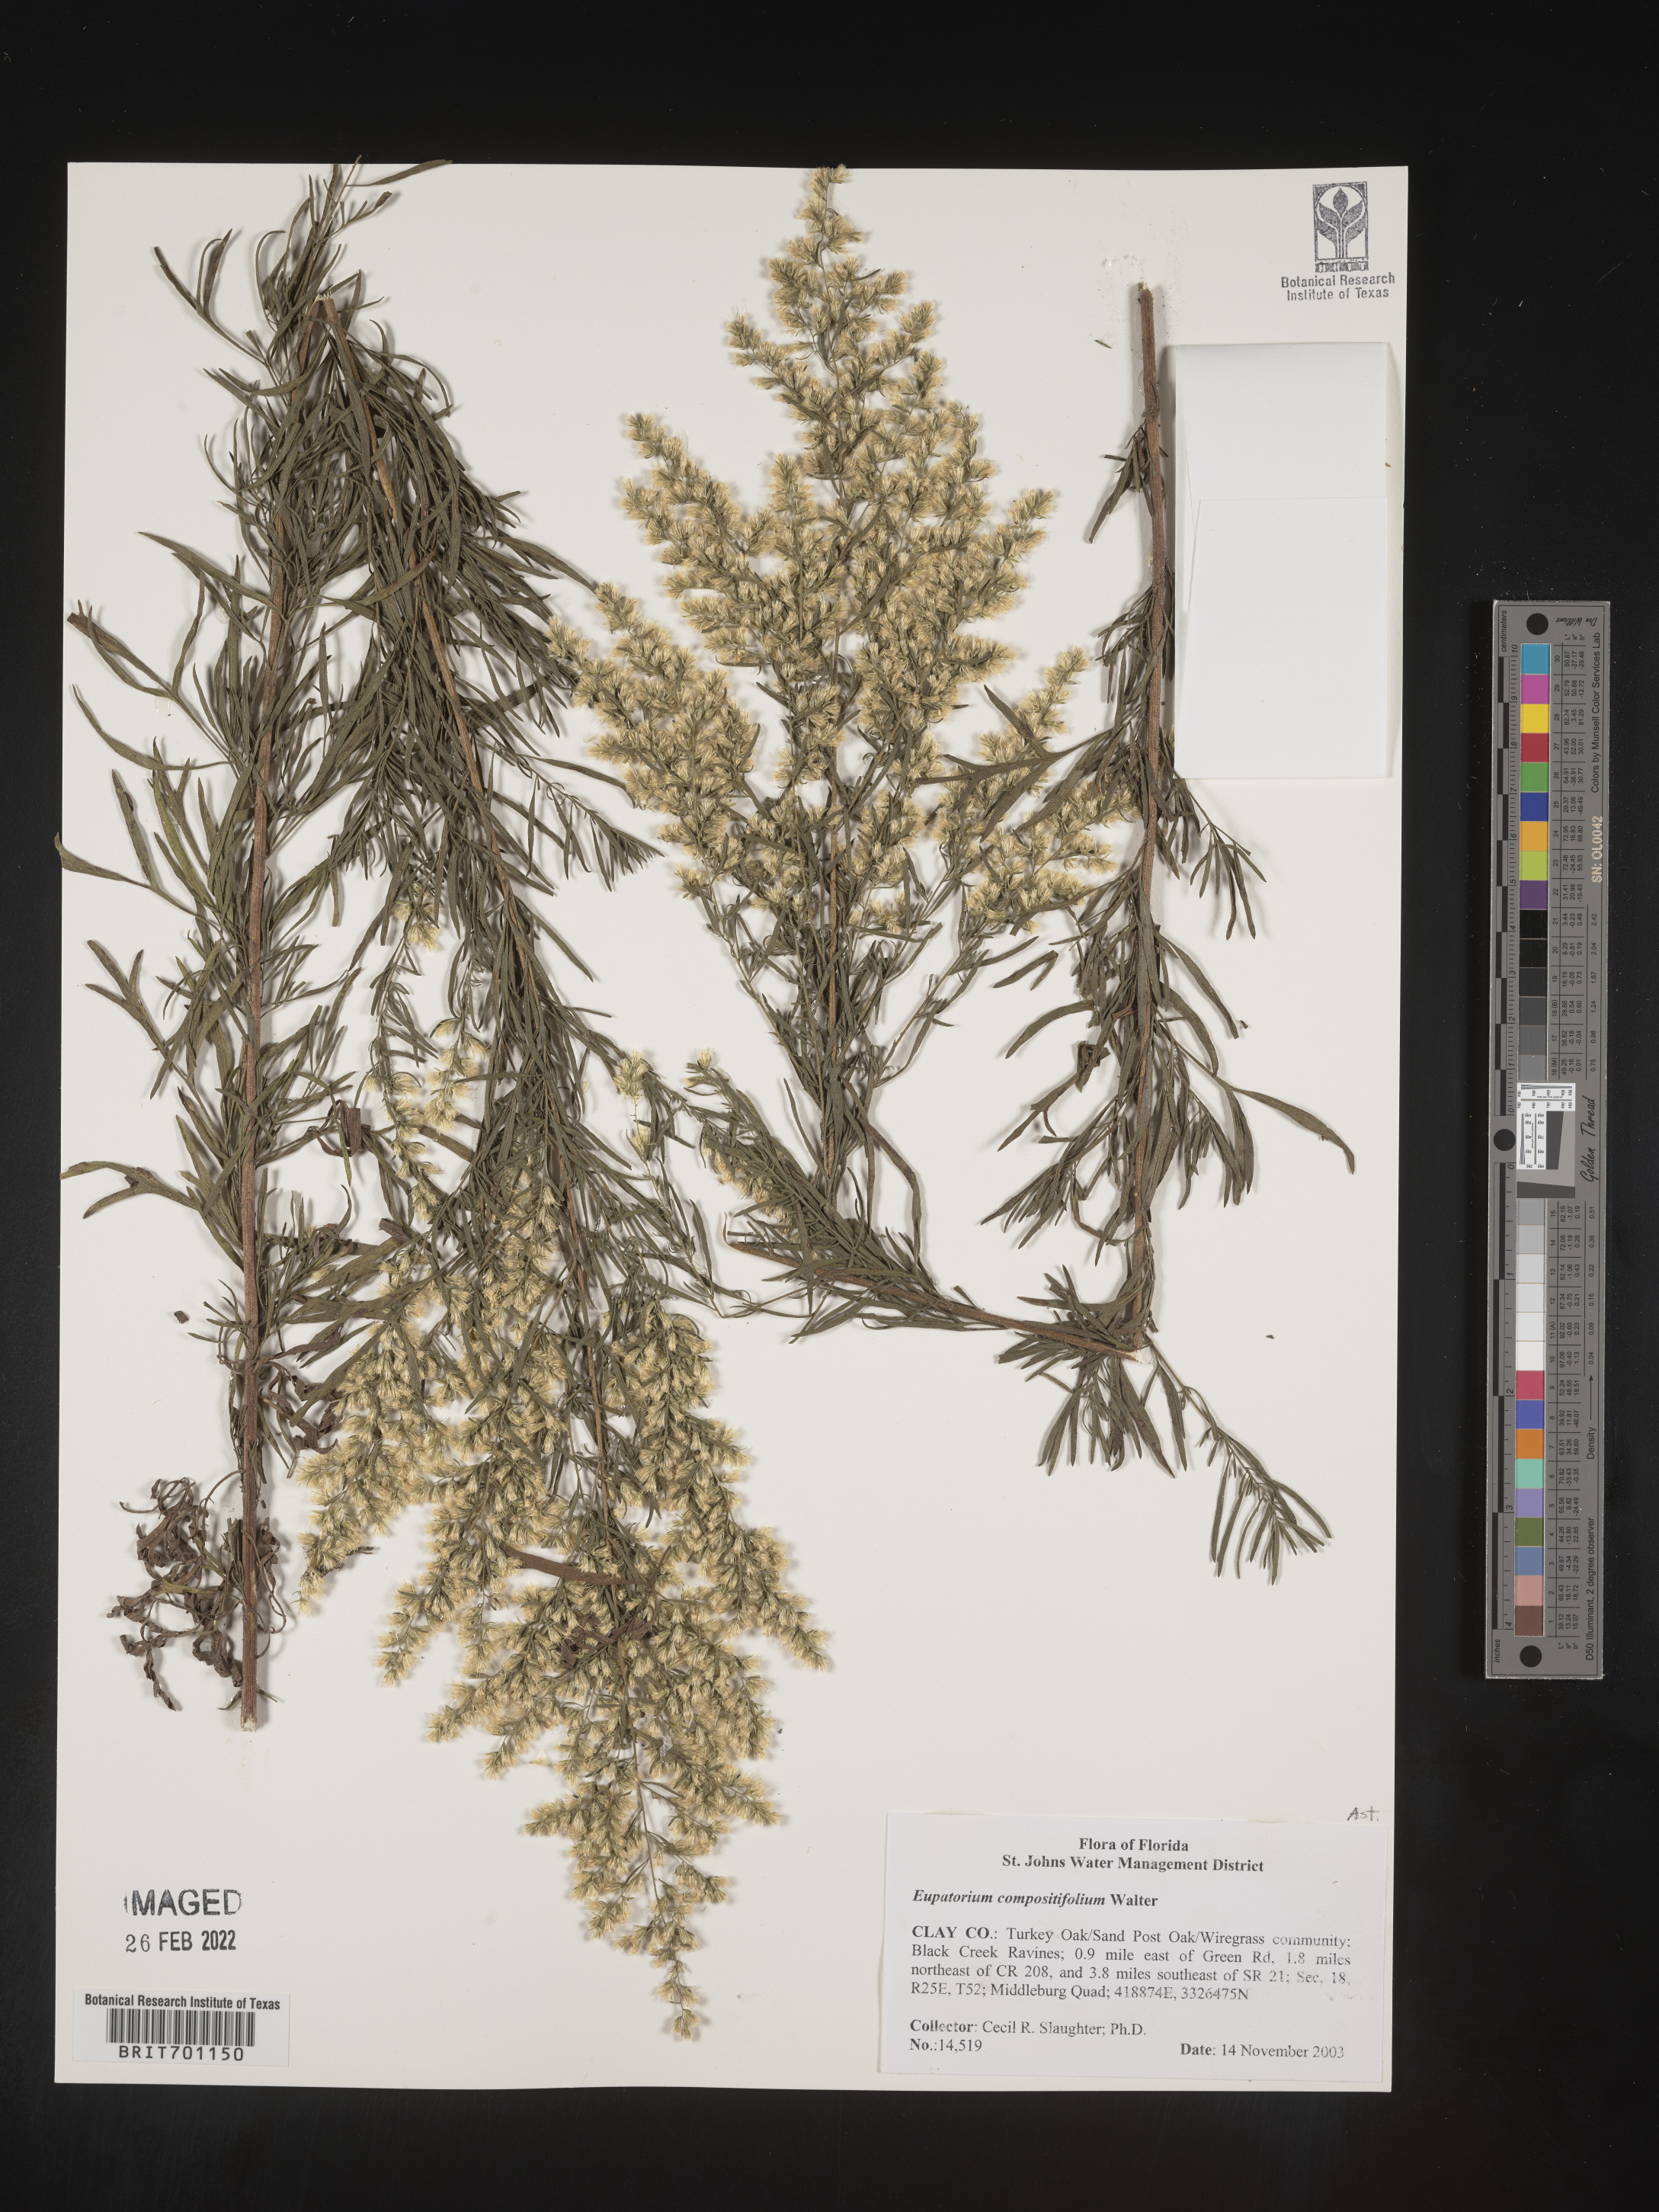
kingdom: Plantae
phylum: Tracheophyta
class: Magnoliopsida
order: Asterales
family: Asteraceae
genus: Eupatorium
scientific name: Eupatorium compositifolium
